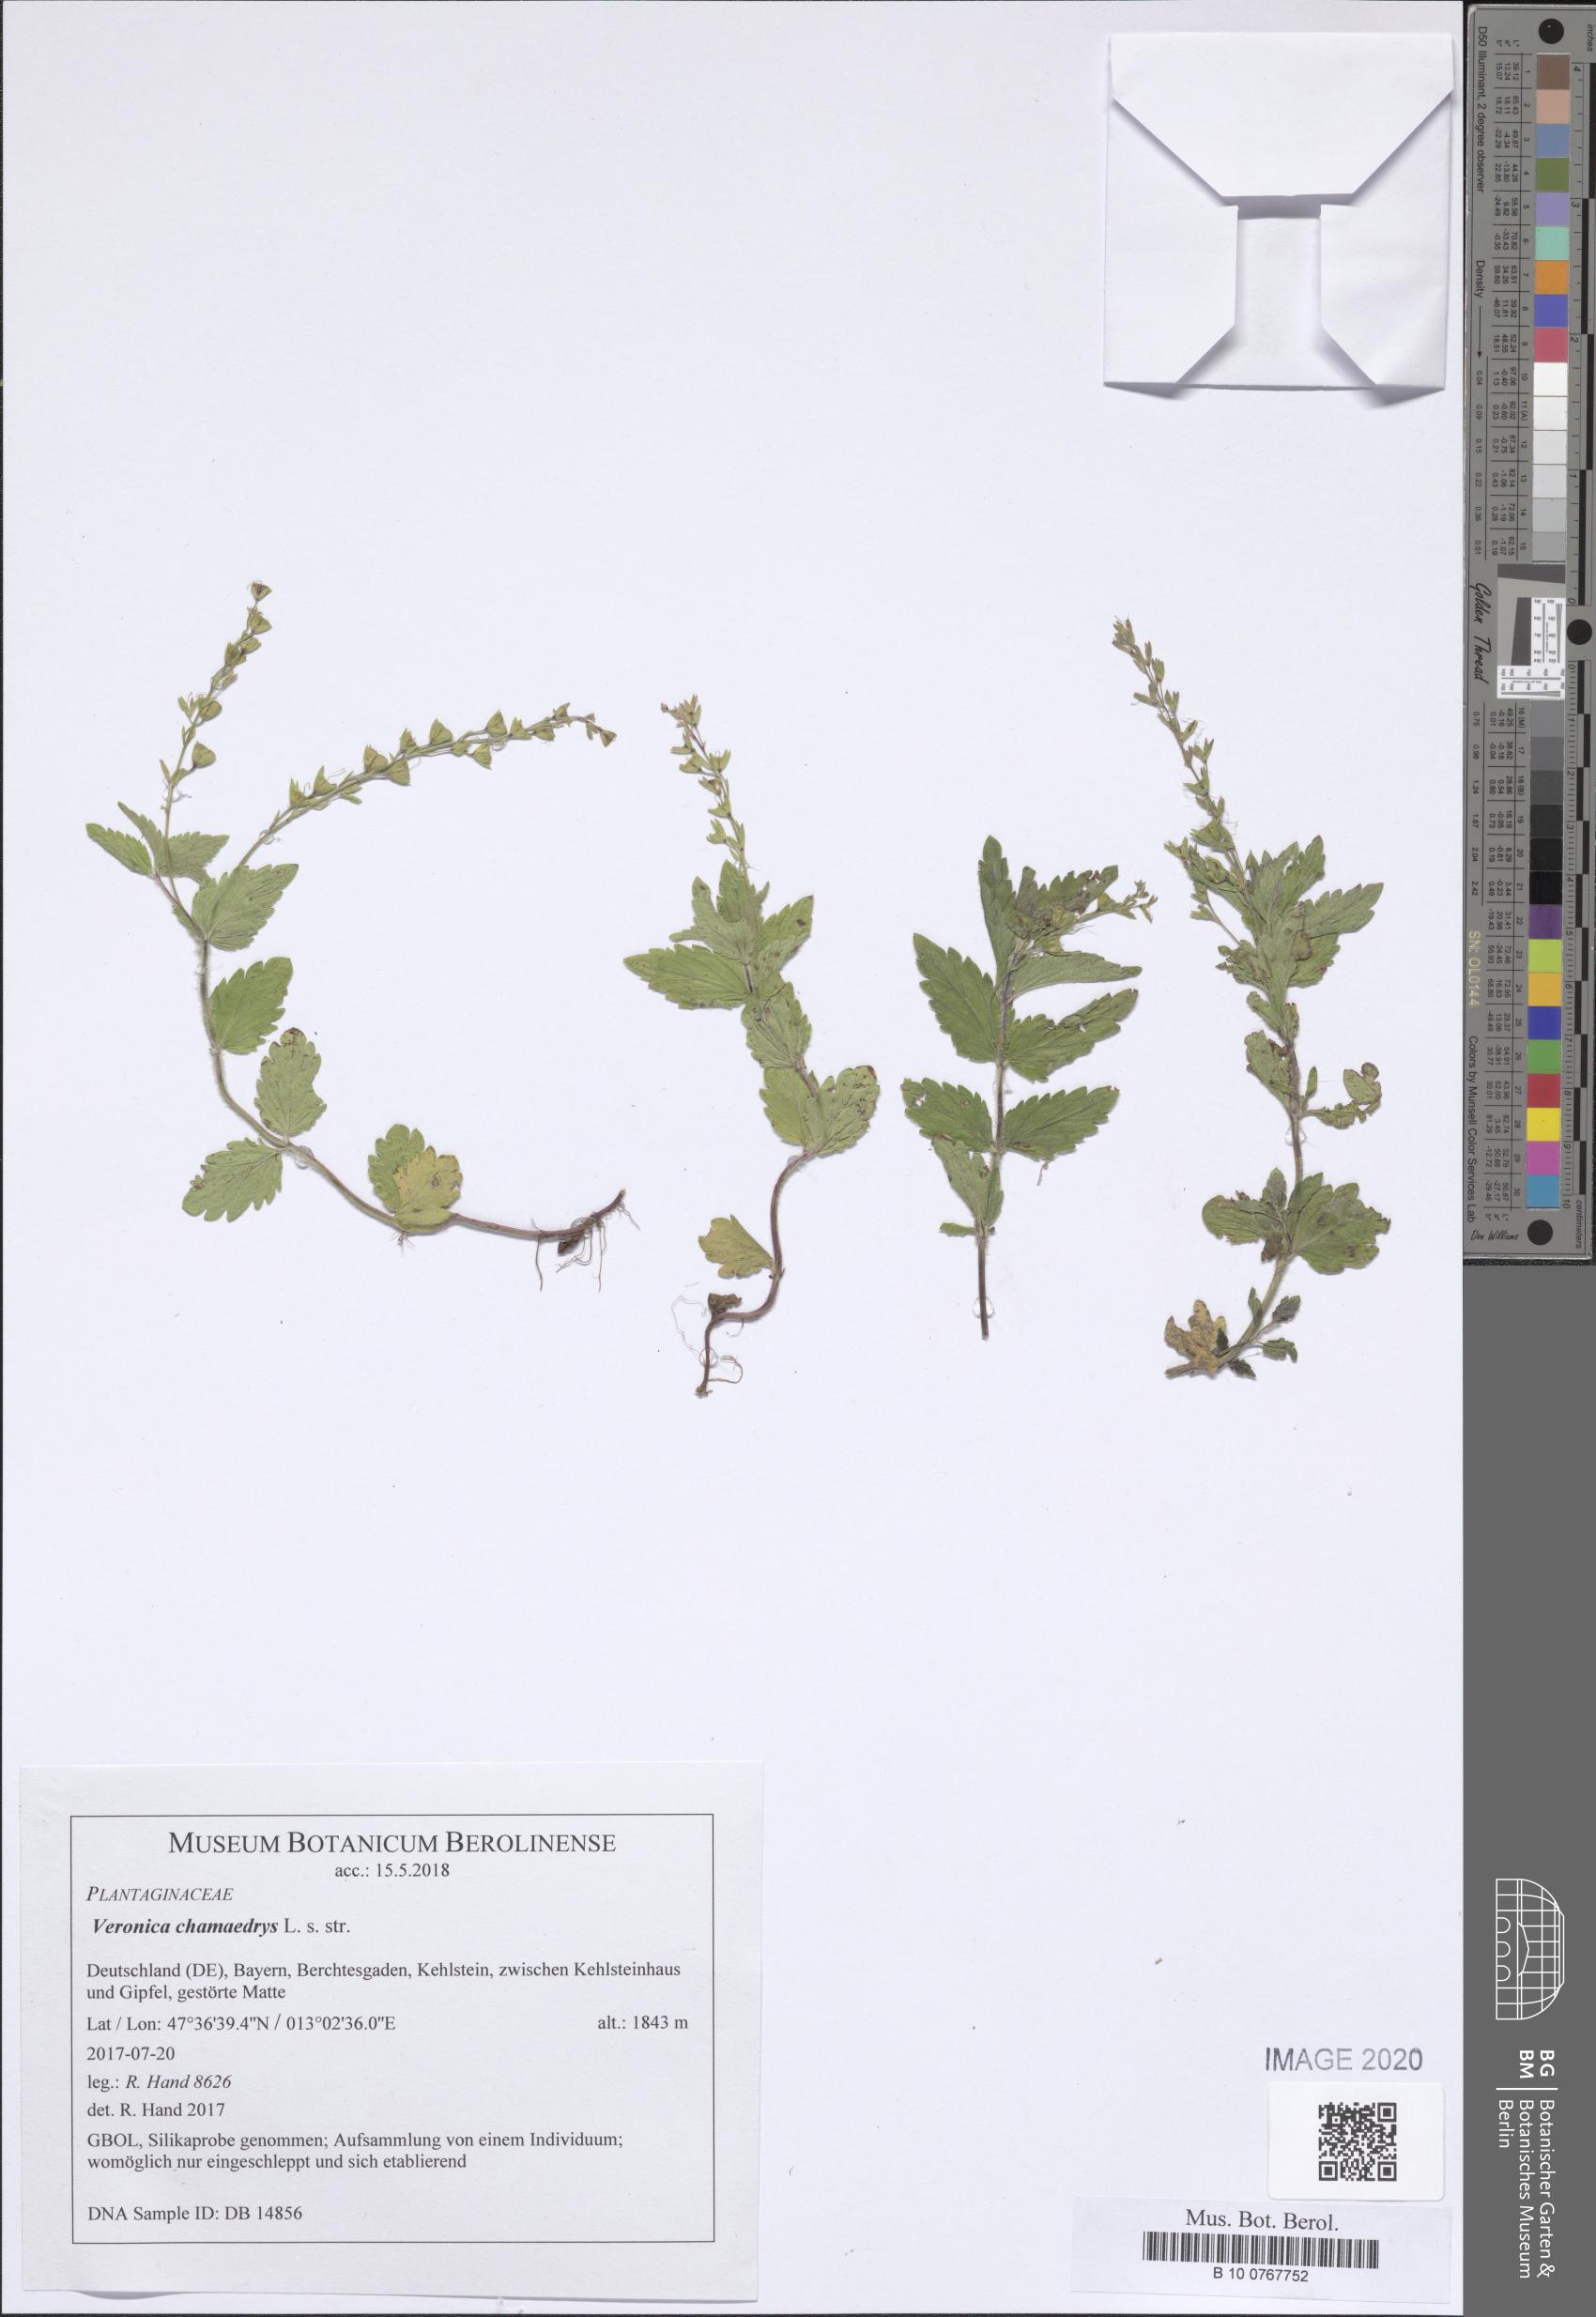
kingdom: Plantae
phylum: Tracheophyta
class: Magnoliopsida
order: Lamiales
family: Plantaginaceae
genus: Veronica
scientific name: Veronica chamaedrys
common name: Germander speedwell
